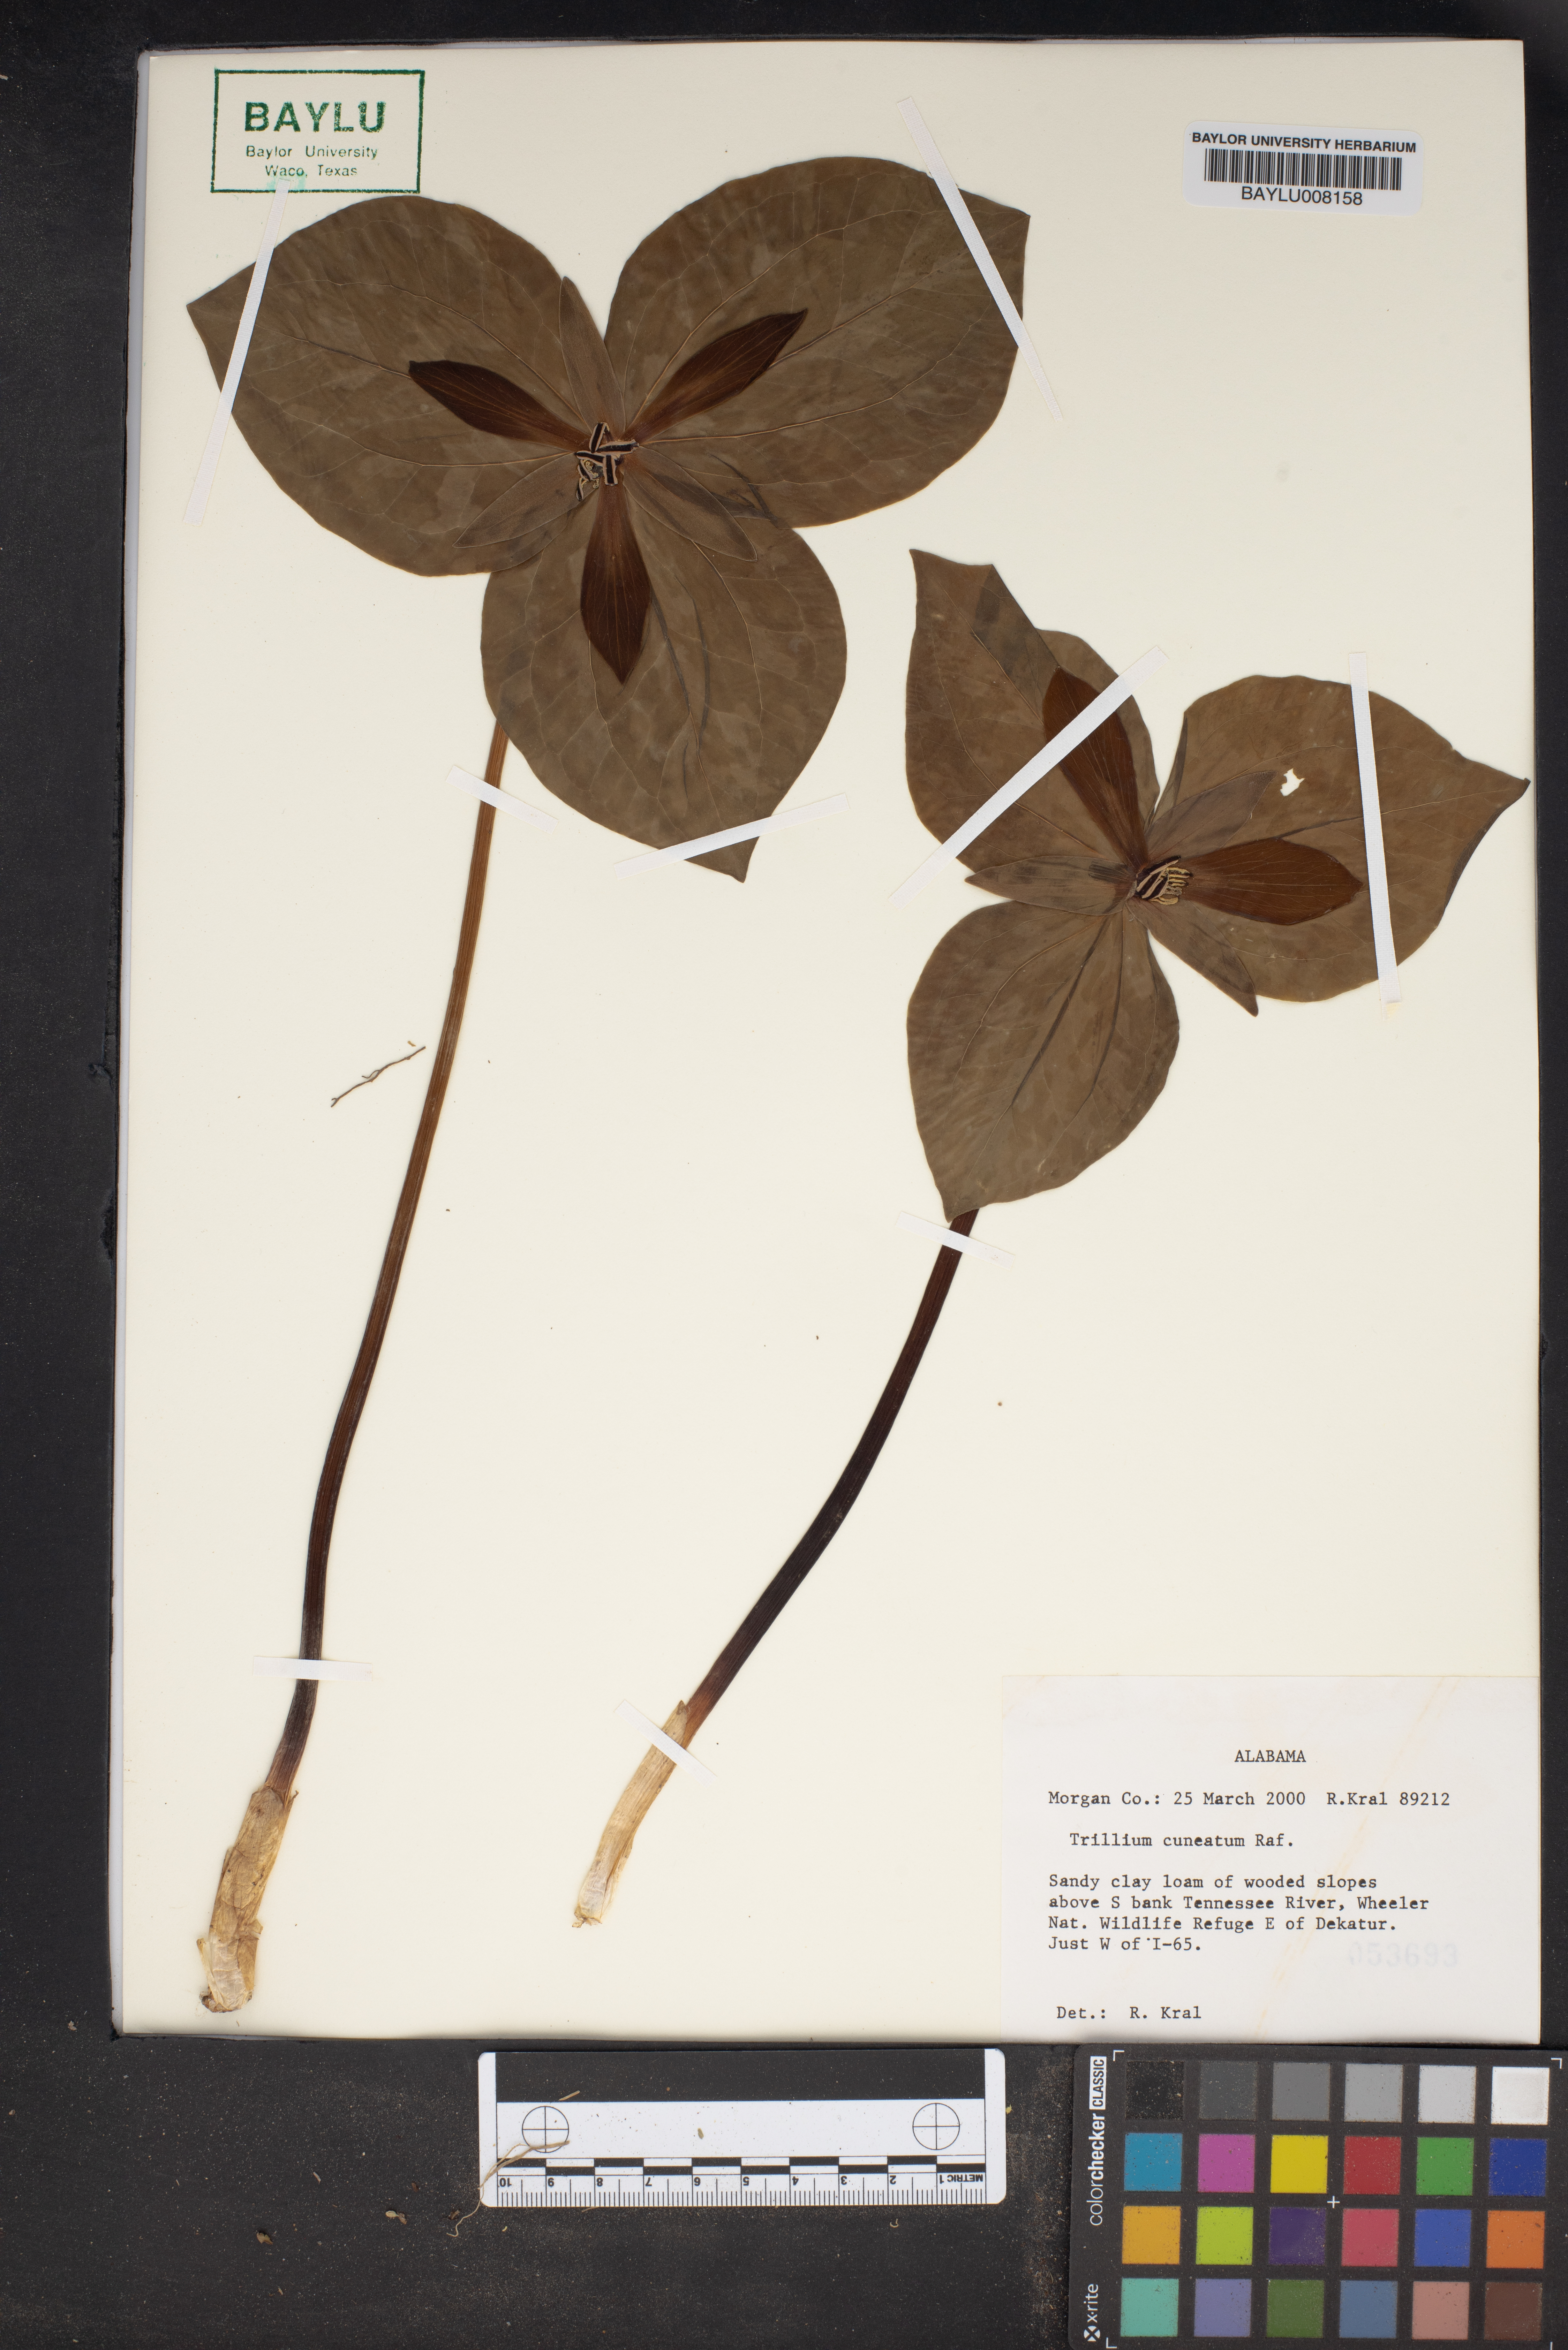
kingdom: Plantae
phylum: Tracheophyta
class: Liliopsida
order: Liliales
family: Melanthiaceae
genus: Trillium
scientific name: Trillium cuneatum
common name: Cuneate trillium
